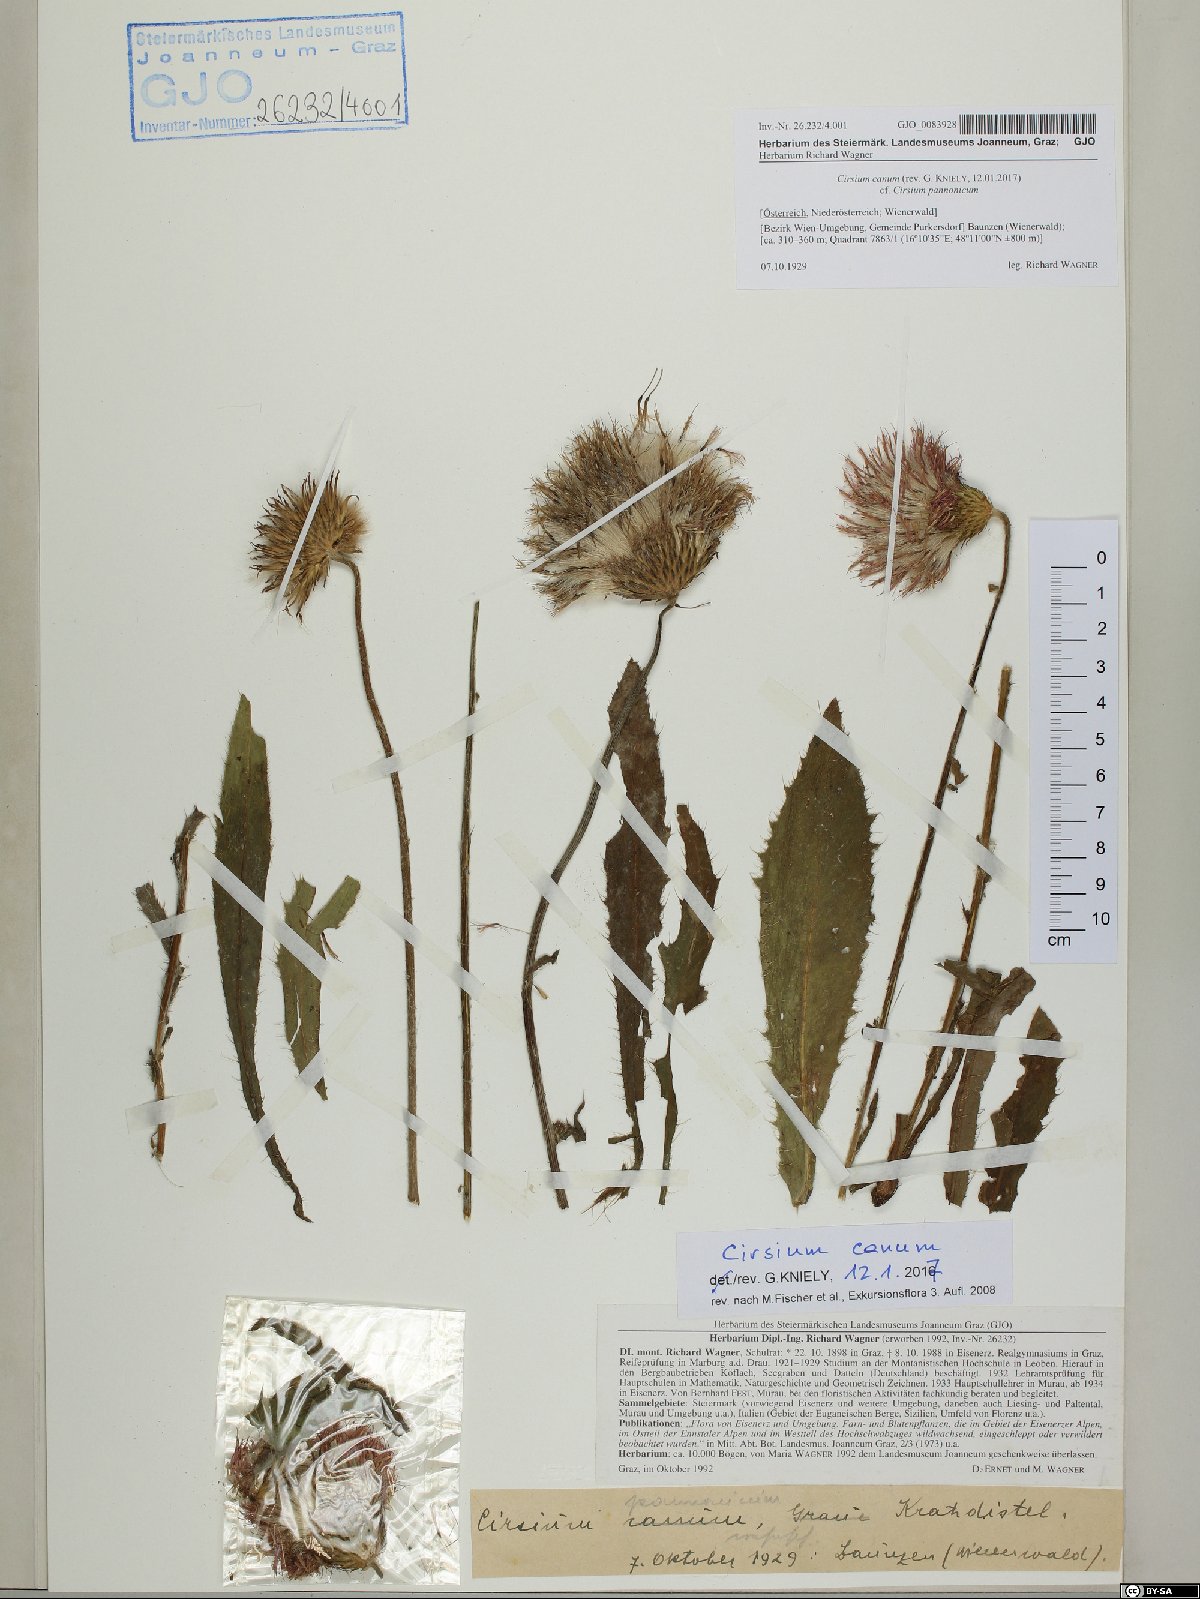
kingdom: Plantae
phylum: Tracheophyta
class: Magnoliopsida
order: Asterales
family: Asteraceae
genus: Cirsium
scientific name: Cirsium canum
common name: Queen anne's thistle
